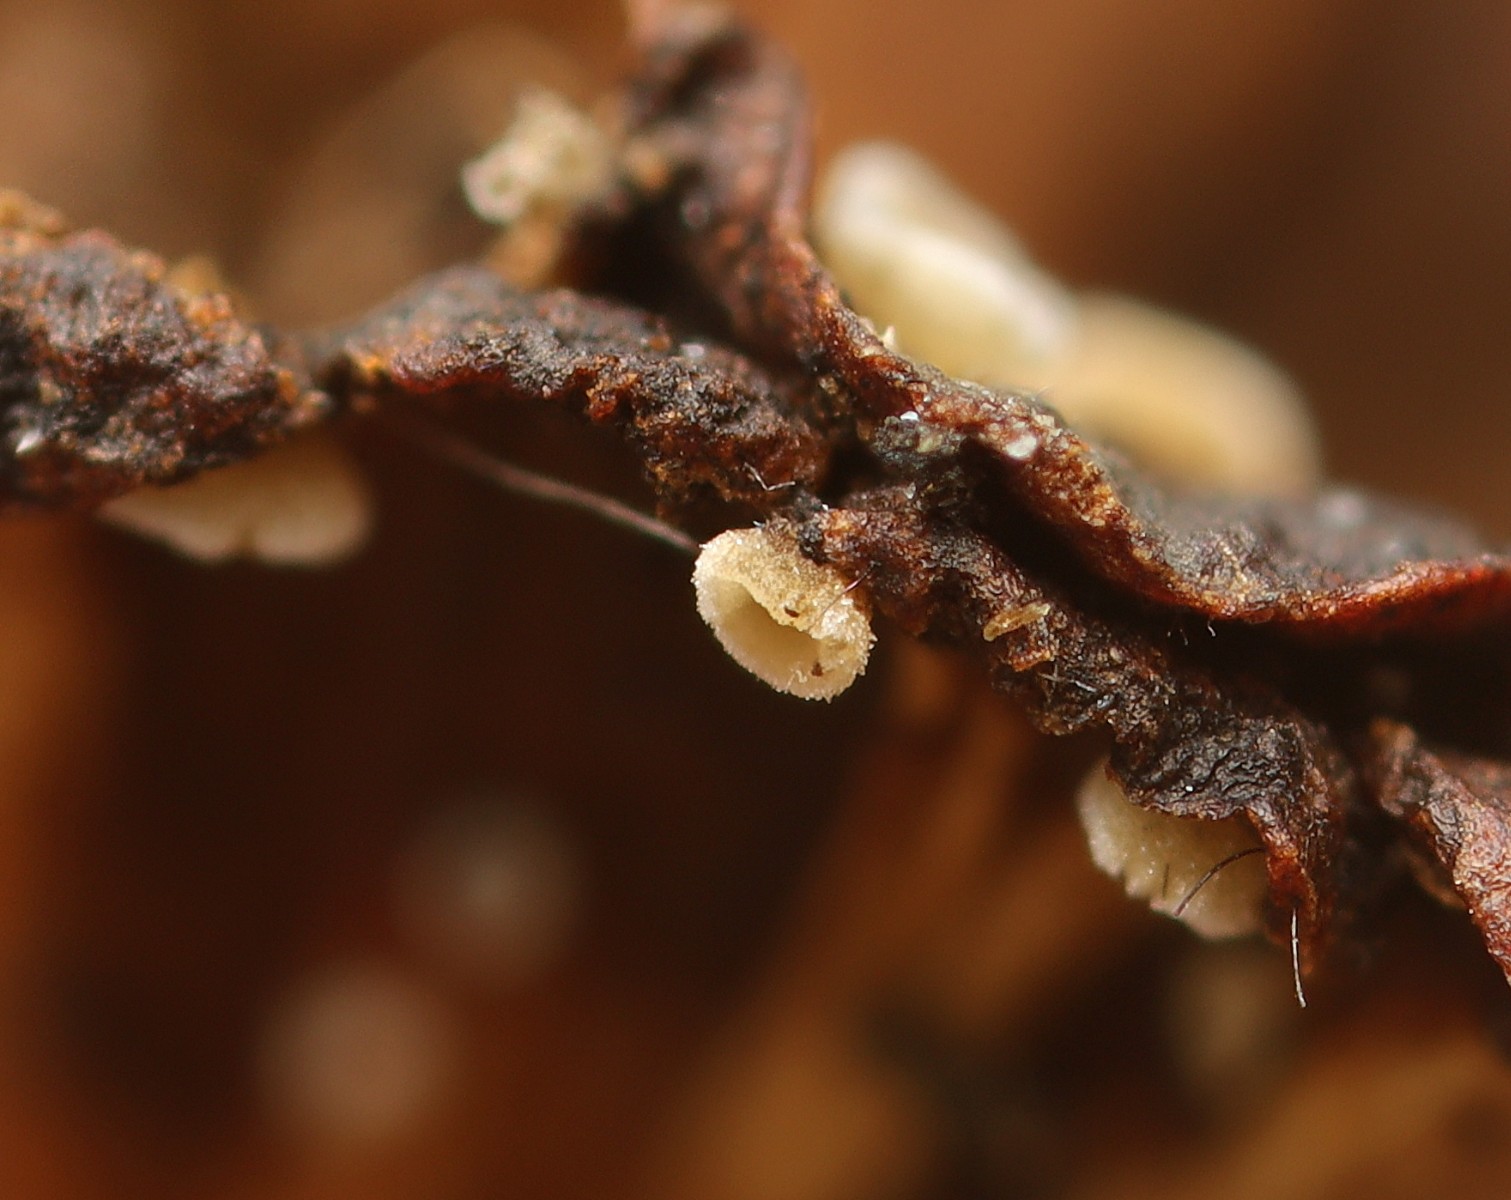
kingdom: Fungi
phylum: Ascomycota
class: Leotiomycetes
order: Helotiales
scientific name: Helotiales
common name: stilkskiveordenen
